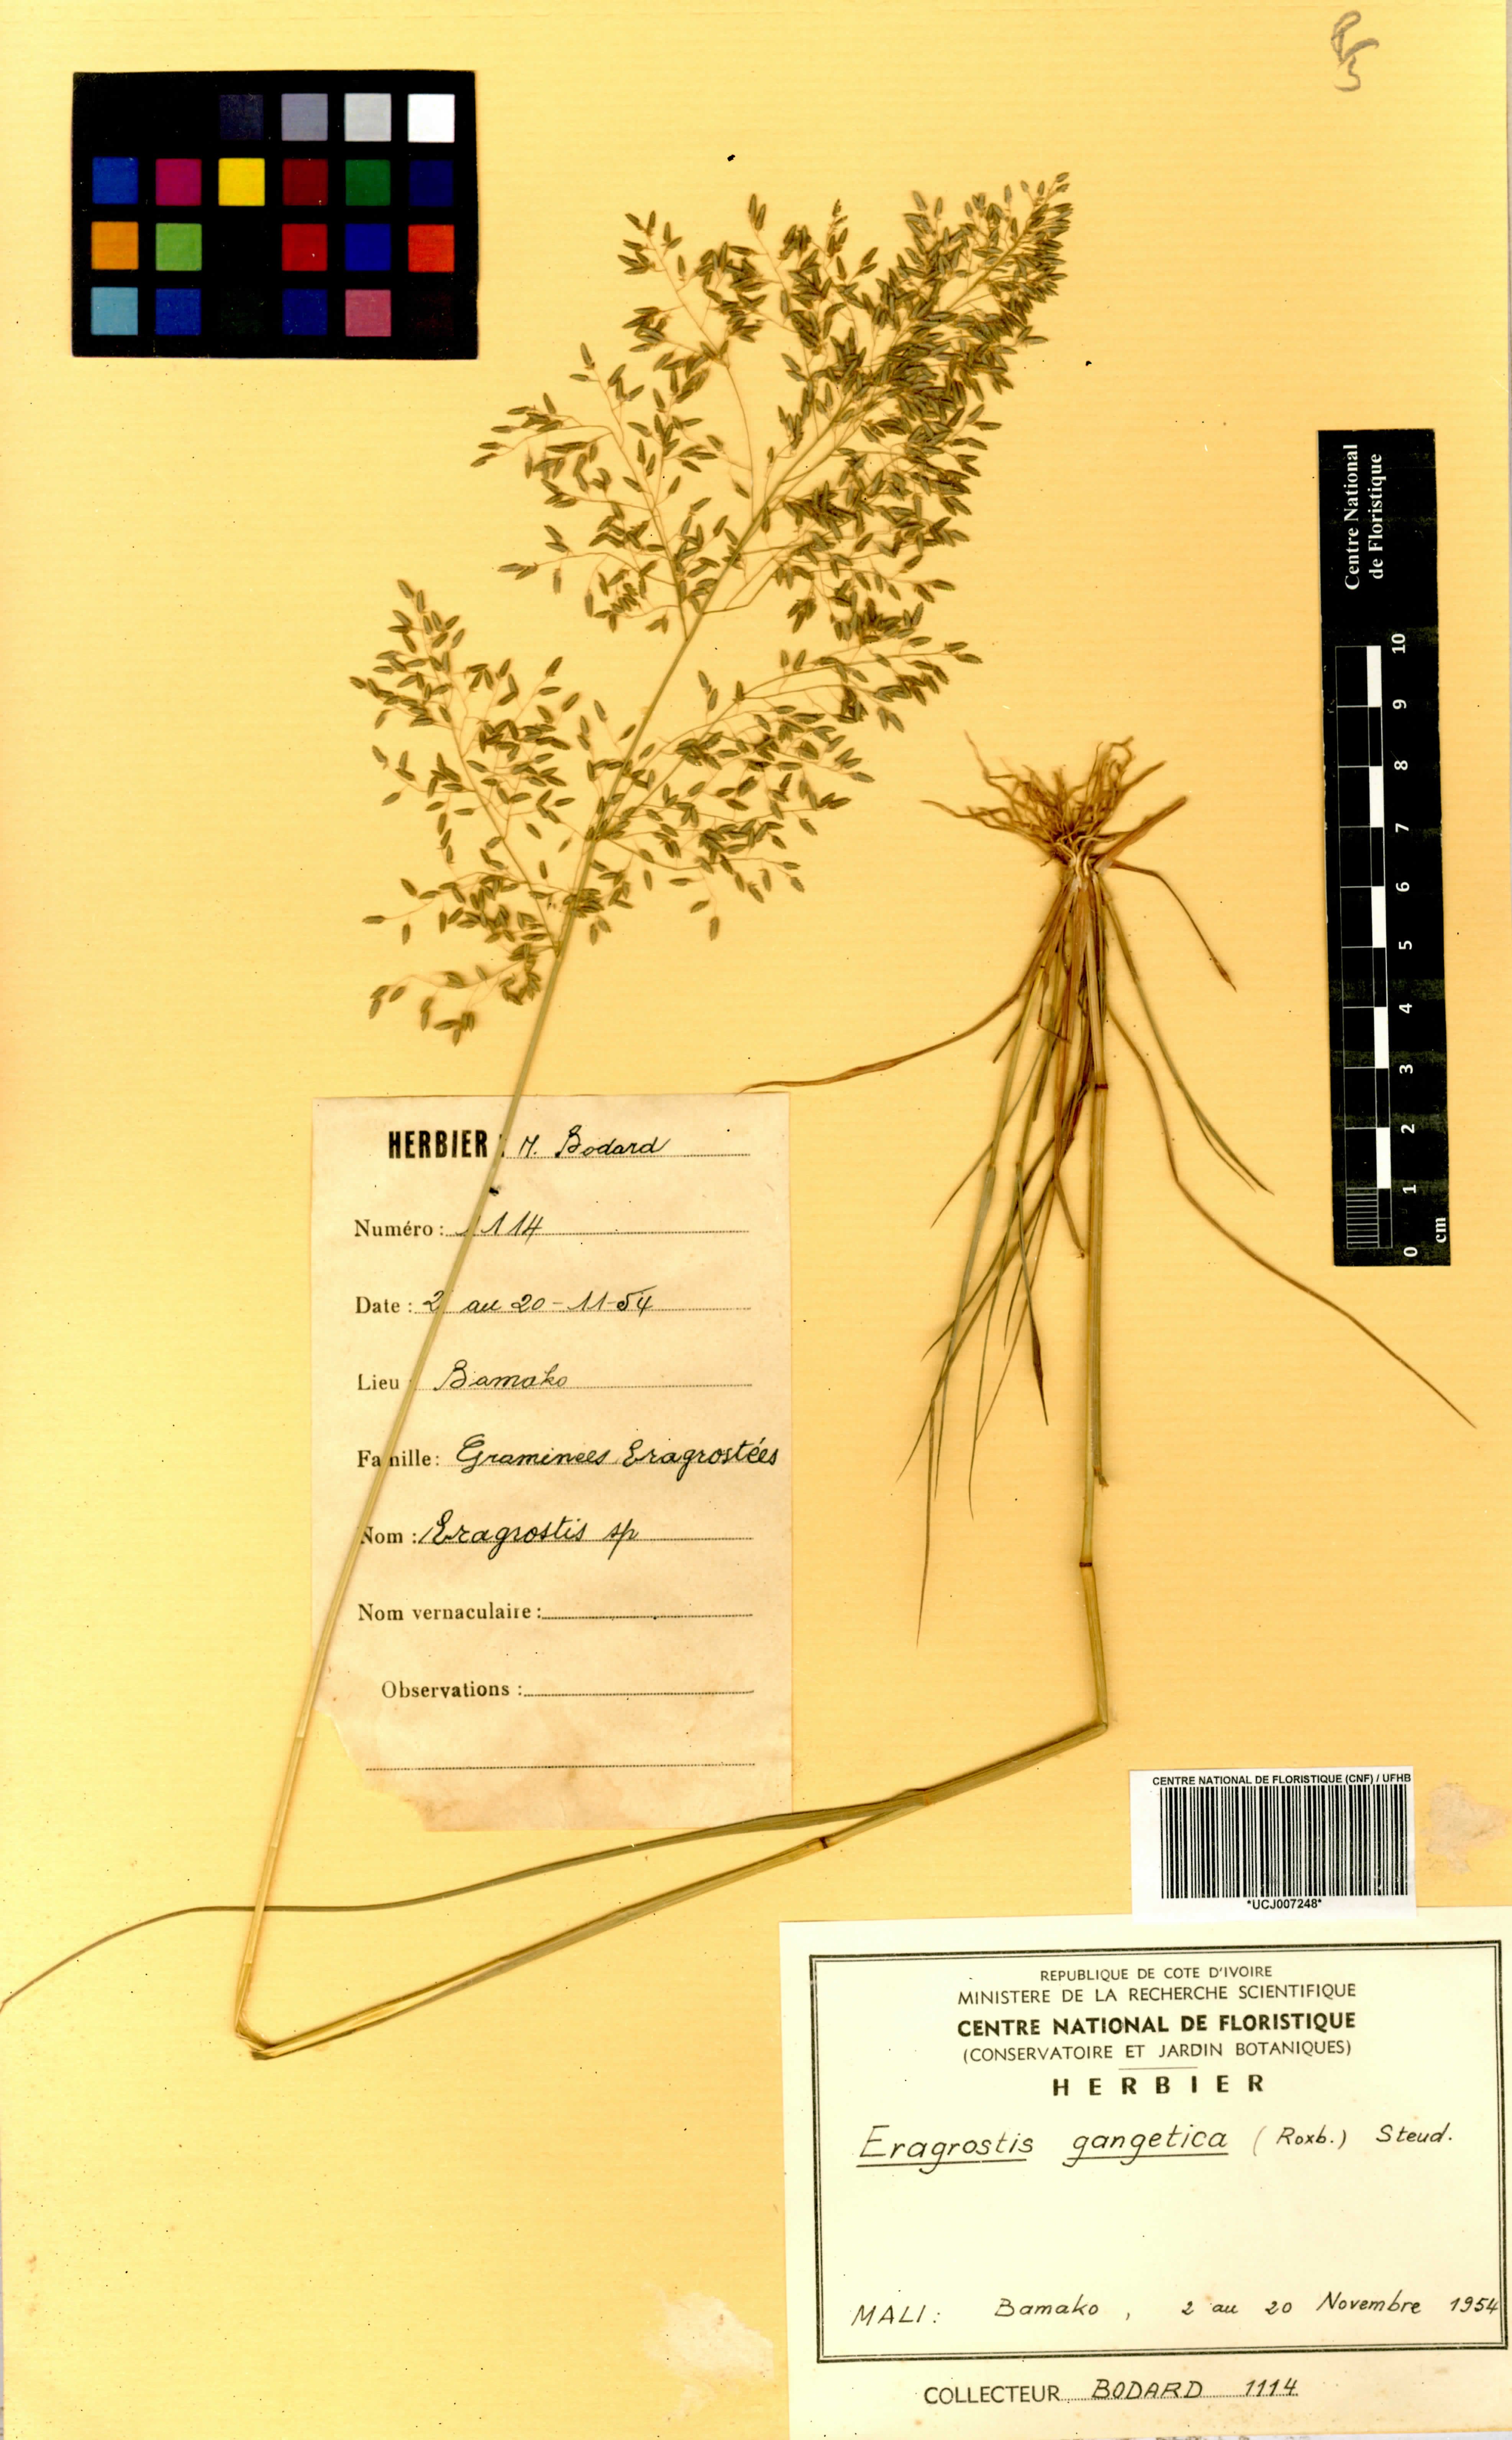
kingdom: Plantae
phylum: Tracheophyta
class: Liliopsida
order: Poales
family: Poaceae
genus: Eragrostis
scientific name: Eragrostis gangetica
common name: Slimflower lovegrass
